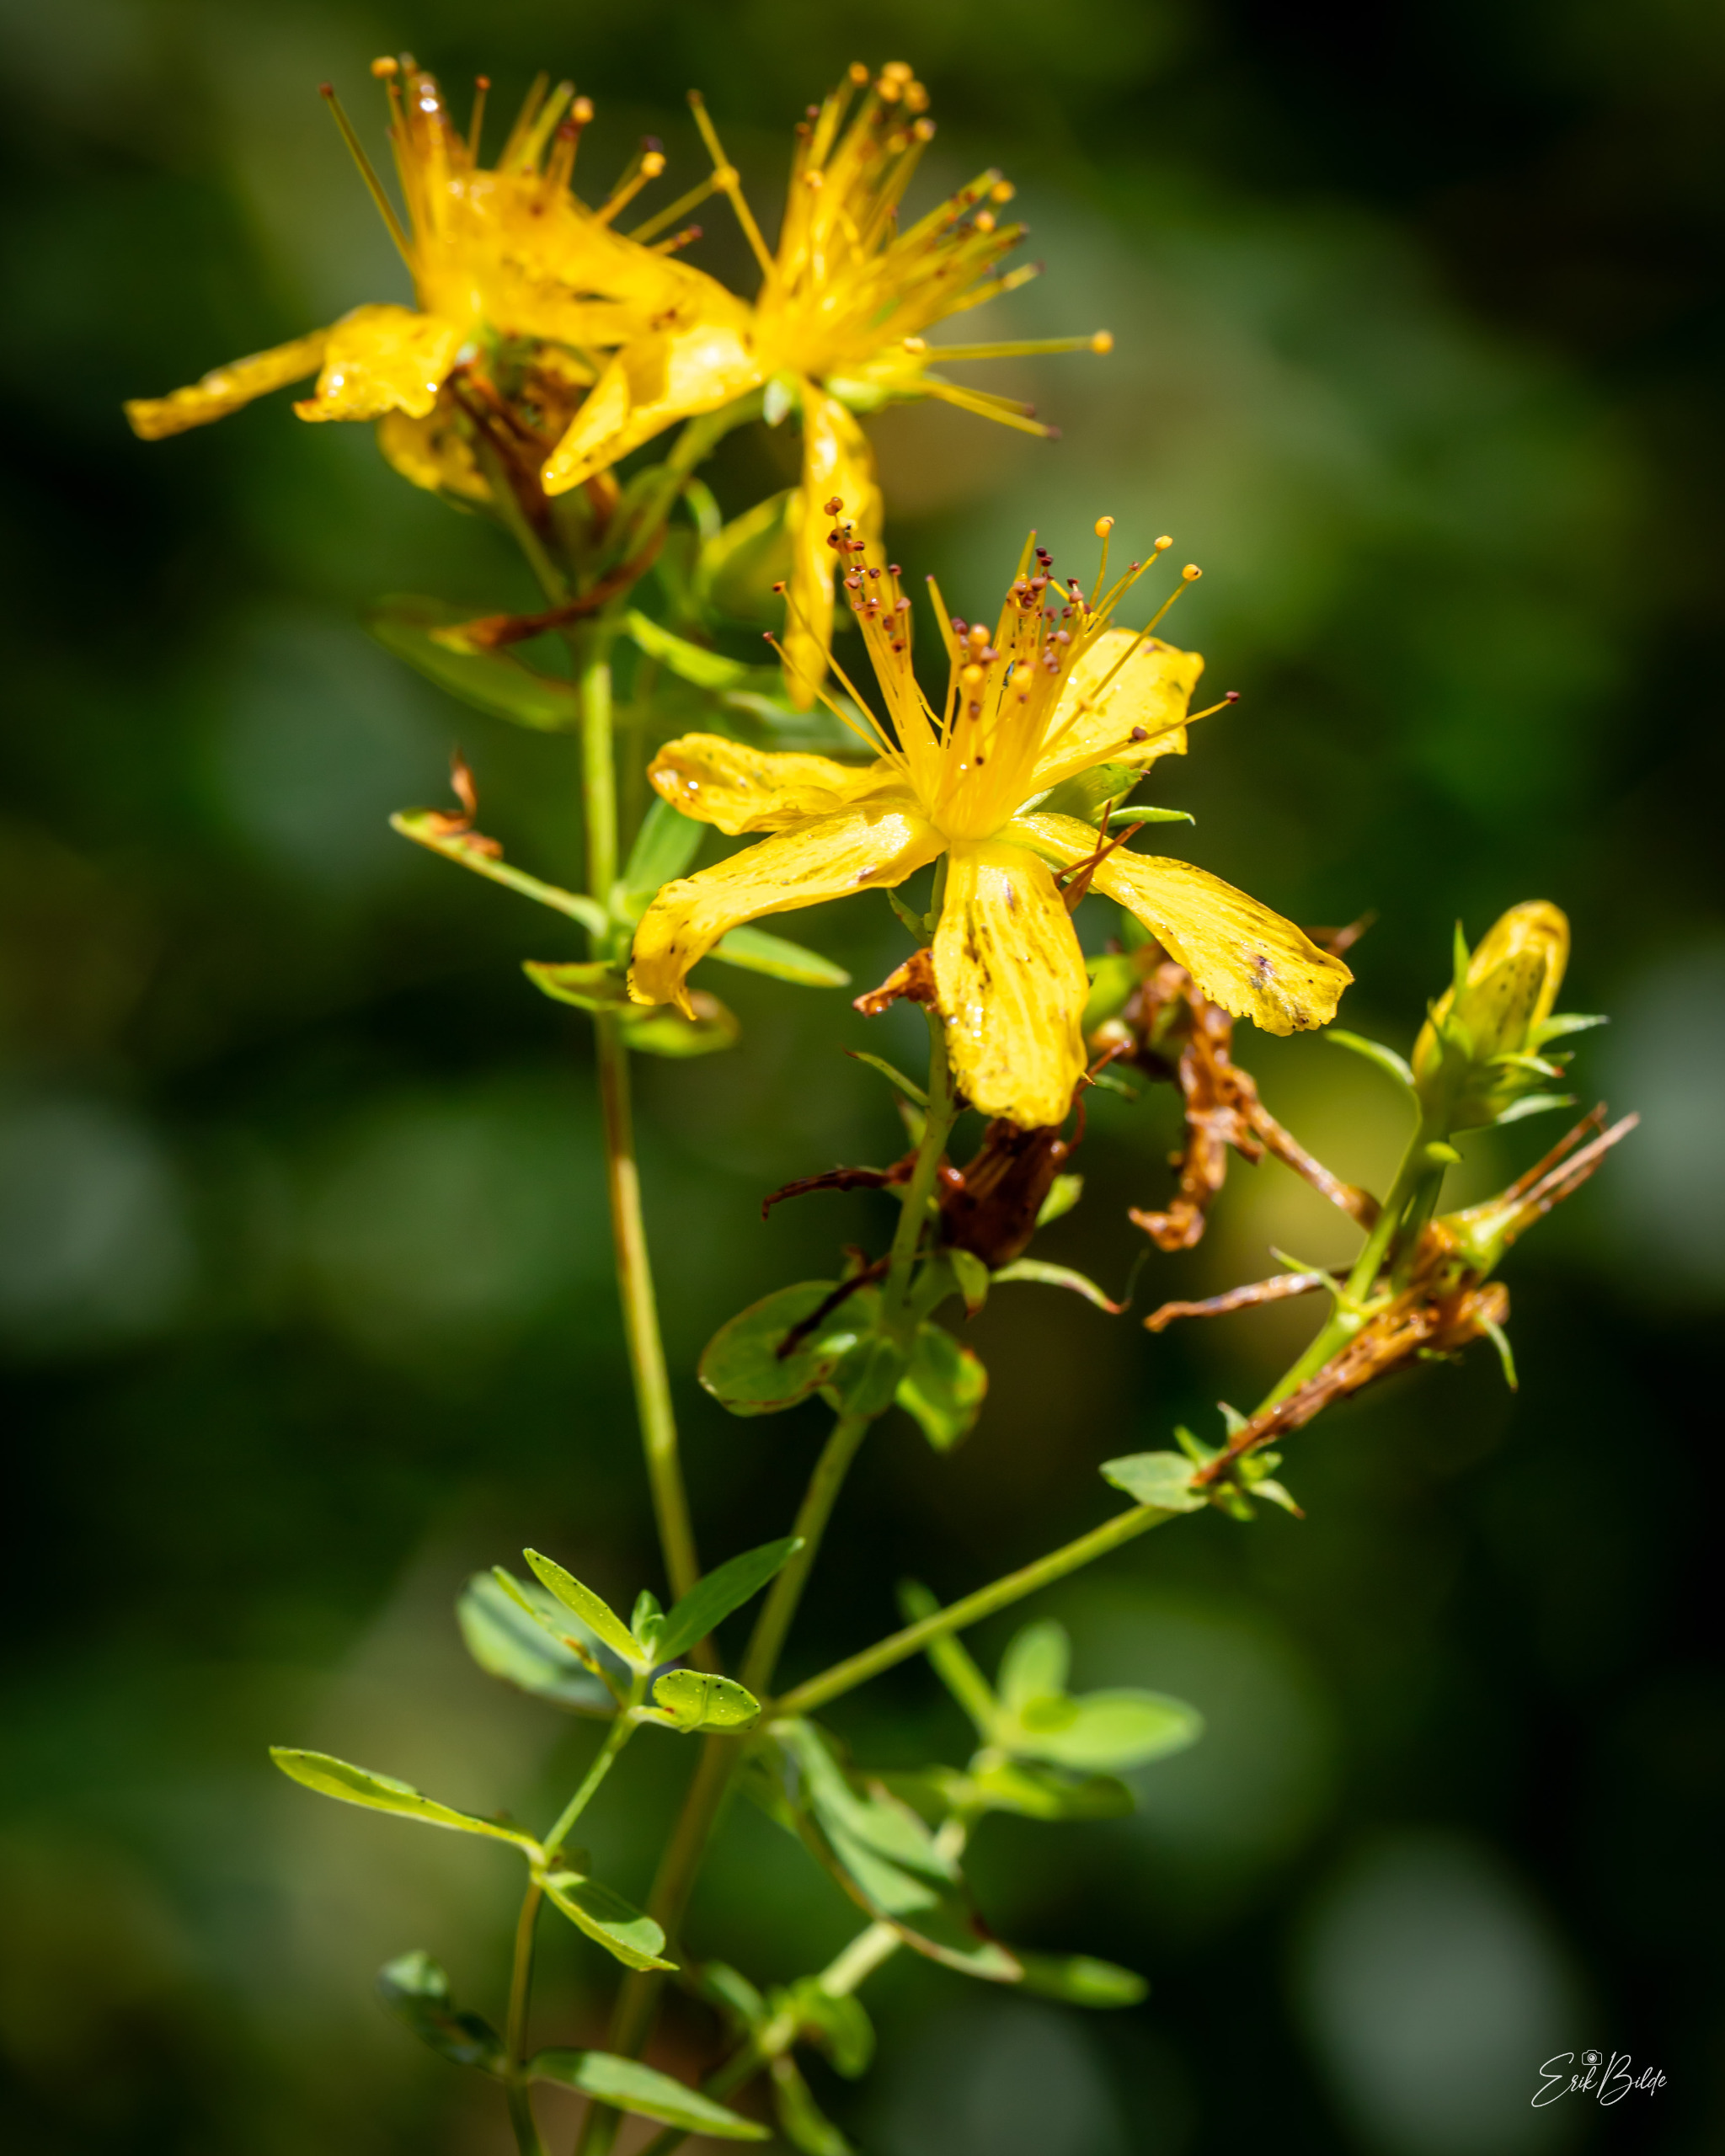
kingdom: Plantae
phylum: Tracheophyta
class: Magnoliopsida
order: Malpighiales
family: Hypericaceae
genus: Hypericum
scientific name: Hypericum perforatum
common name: Prikbladet perikon
